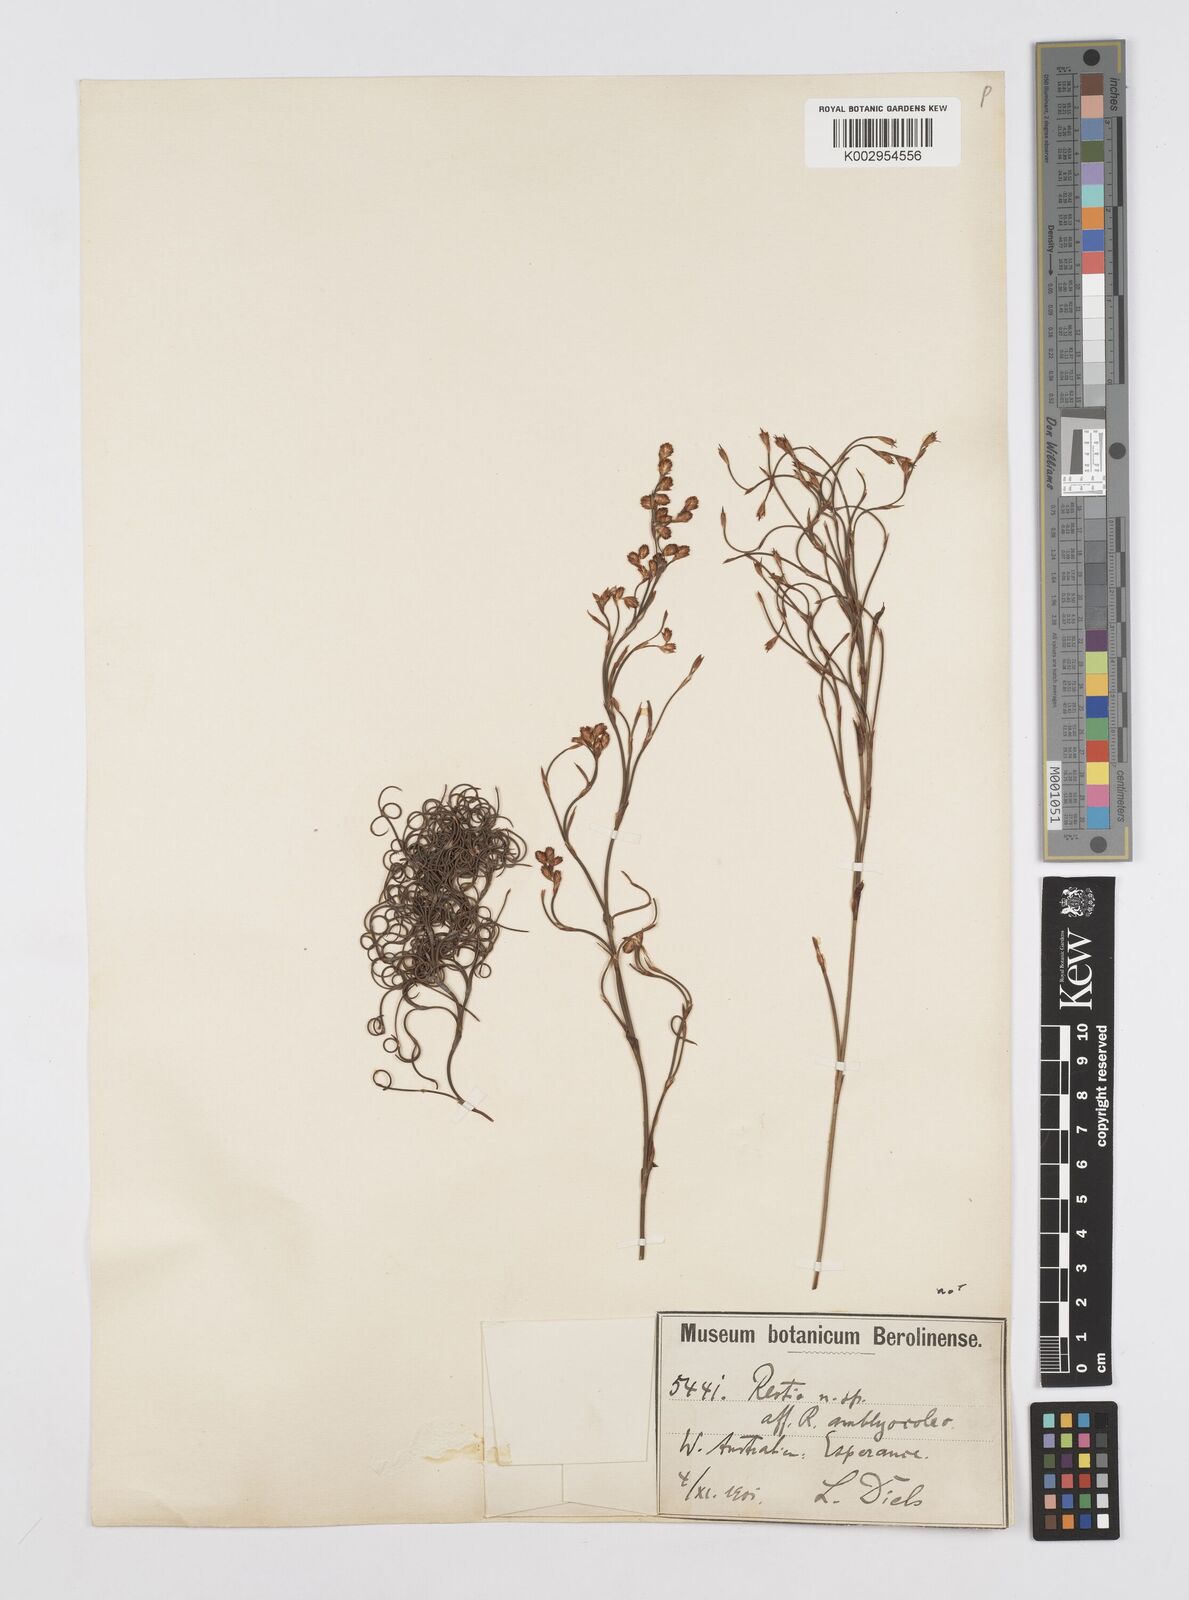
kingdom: Plantae
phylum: Tracheophyta
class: Liliopsida
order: Poales
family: Restionaceae
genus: Chordifex
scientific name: Chordifex amblycoleus
